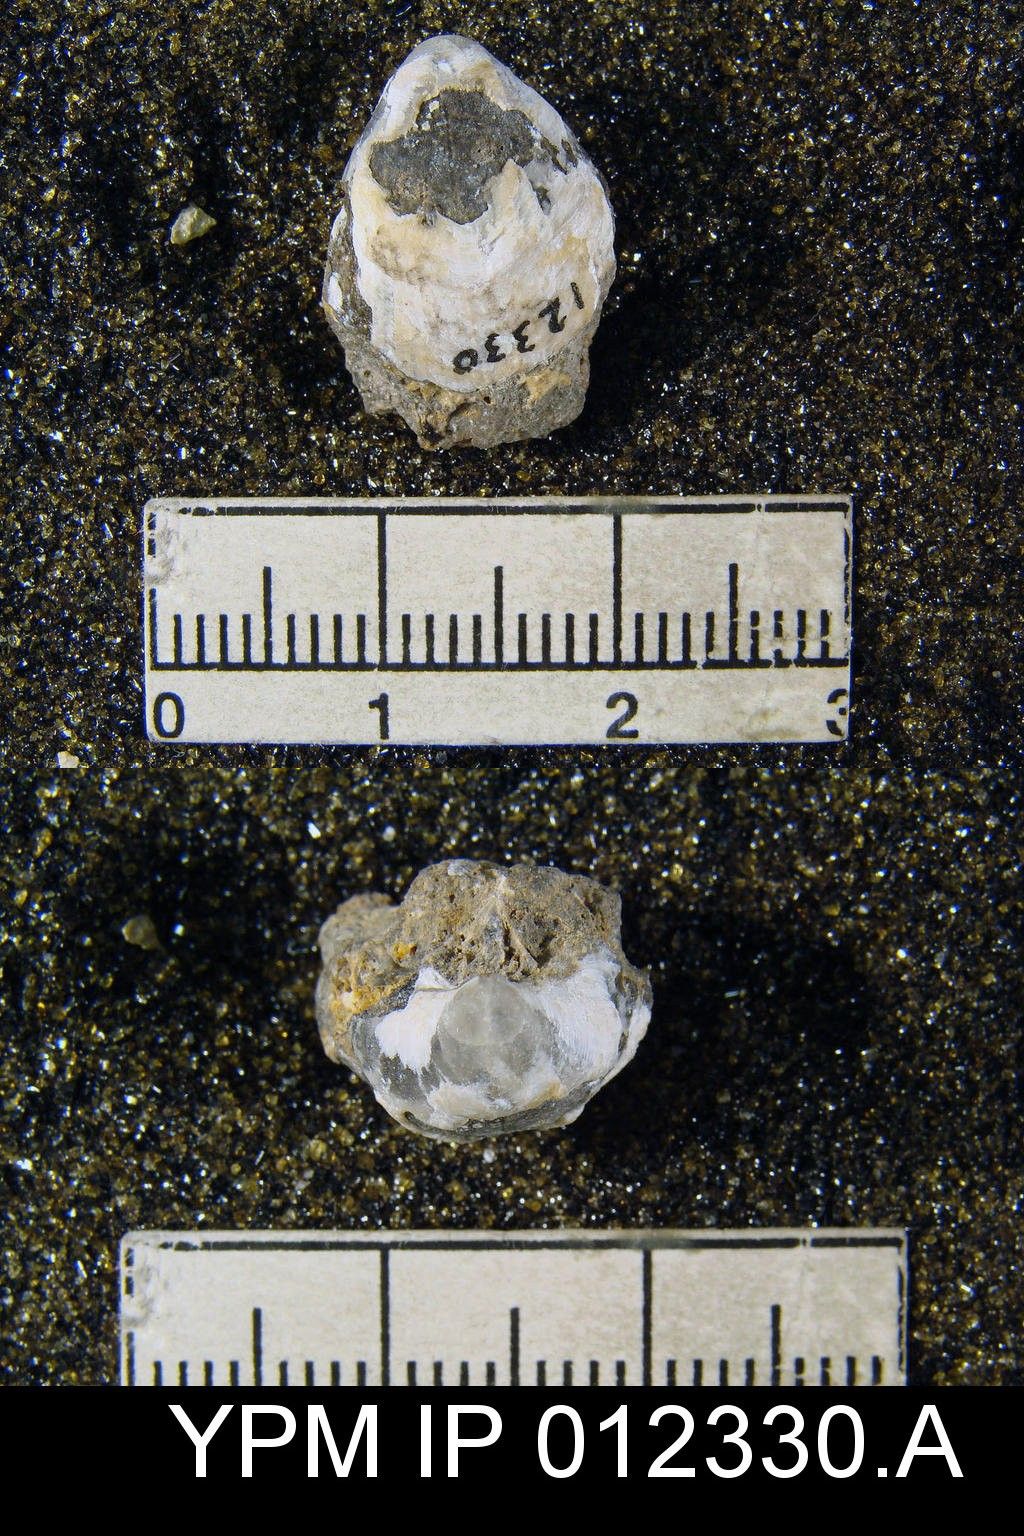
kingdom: Animalia
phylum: Brachiopoda
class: Rhynchonellata
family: Martiniidae
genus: Martinia
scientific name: Martinia rhomboidalis
